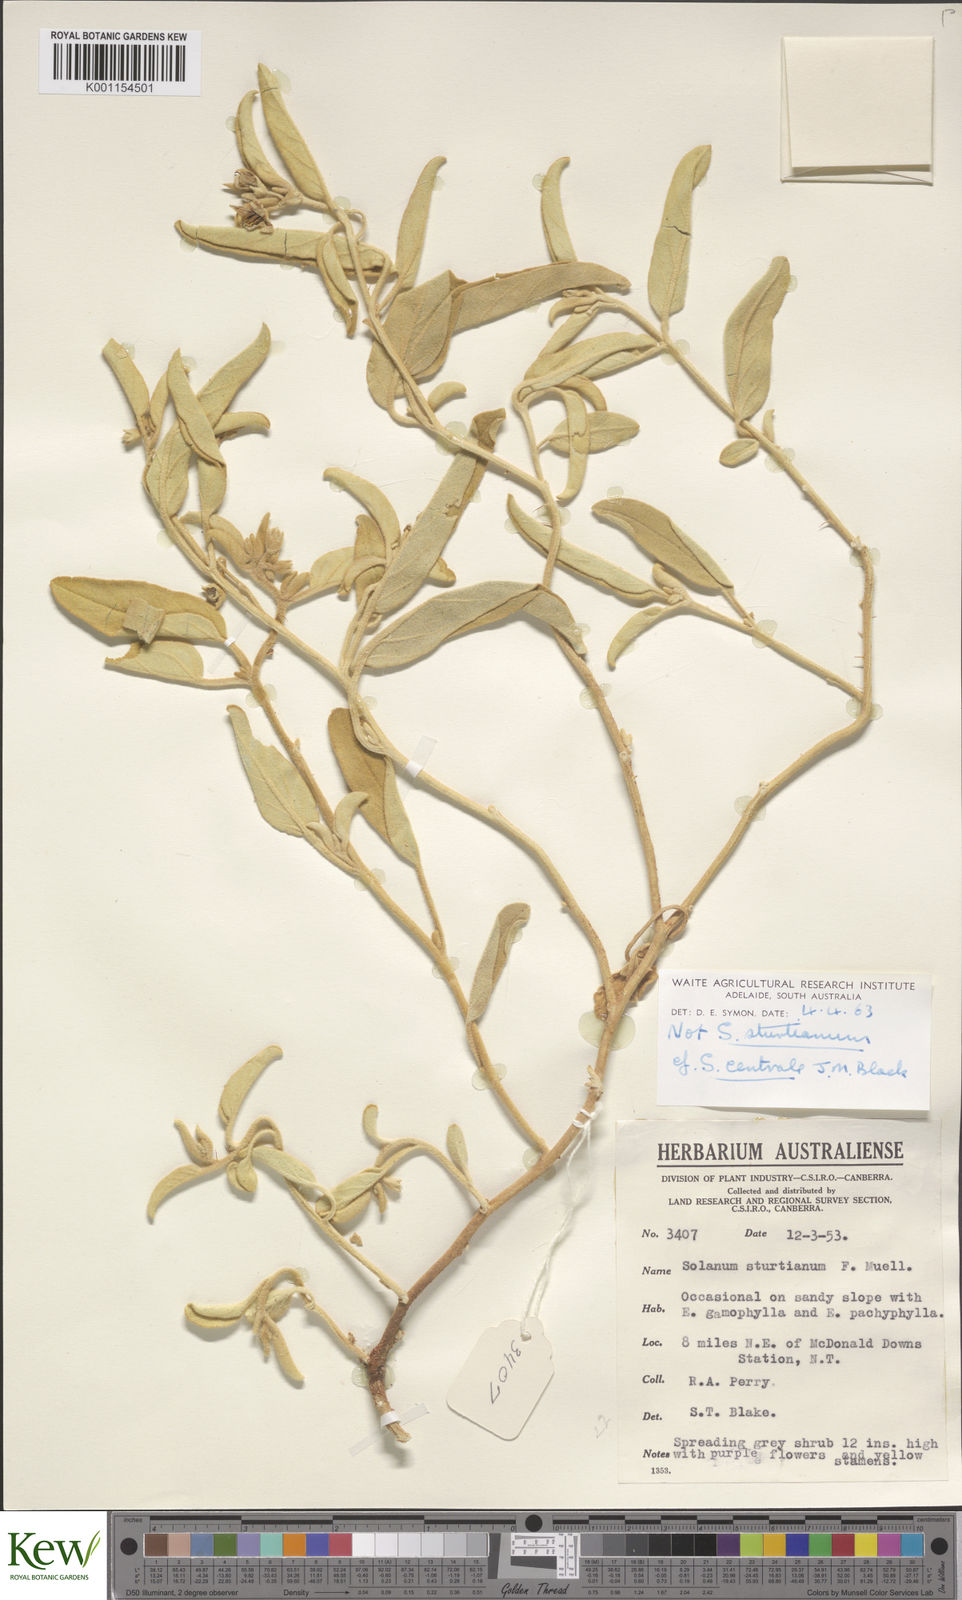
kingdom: Plantae
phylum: Tracheophyta
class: Magnoliopsida
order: Solanales
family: Solanaceae
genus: Solanum
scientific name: Solanum centrale
